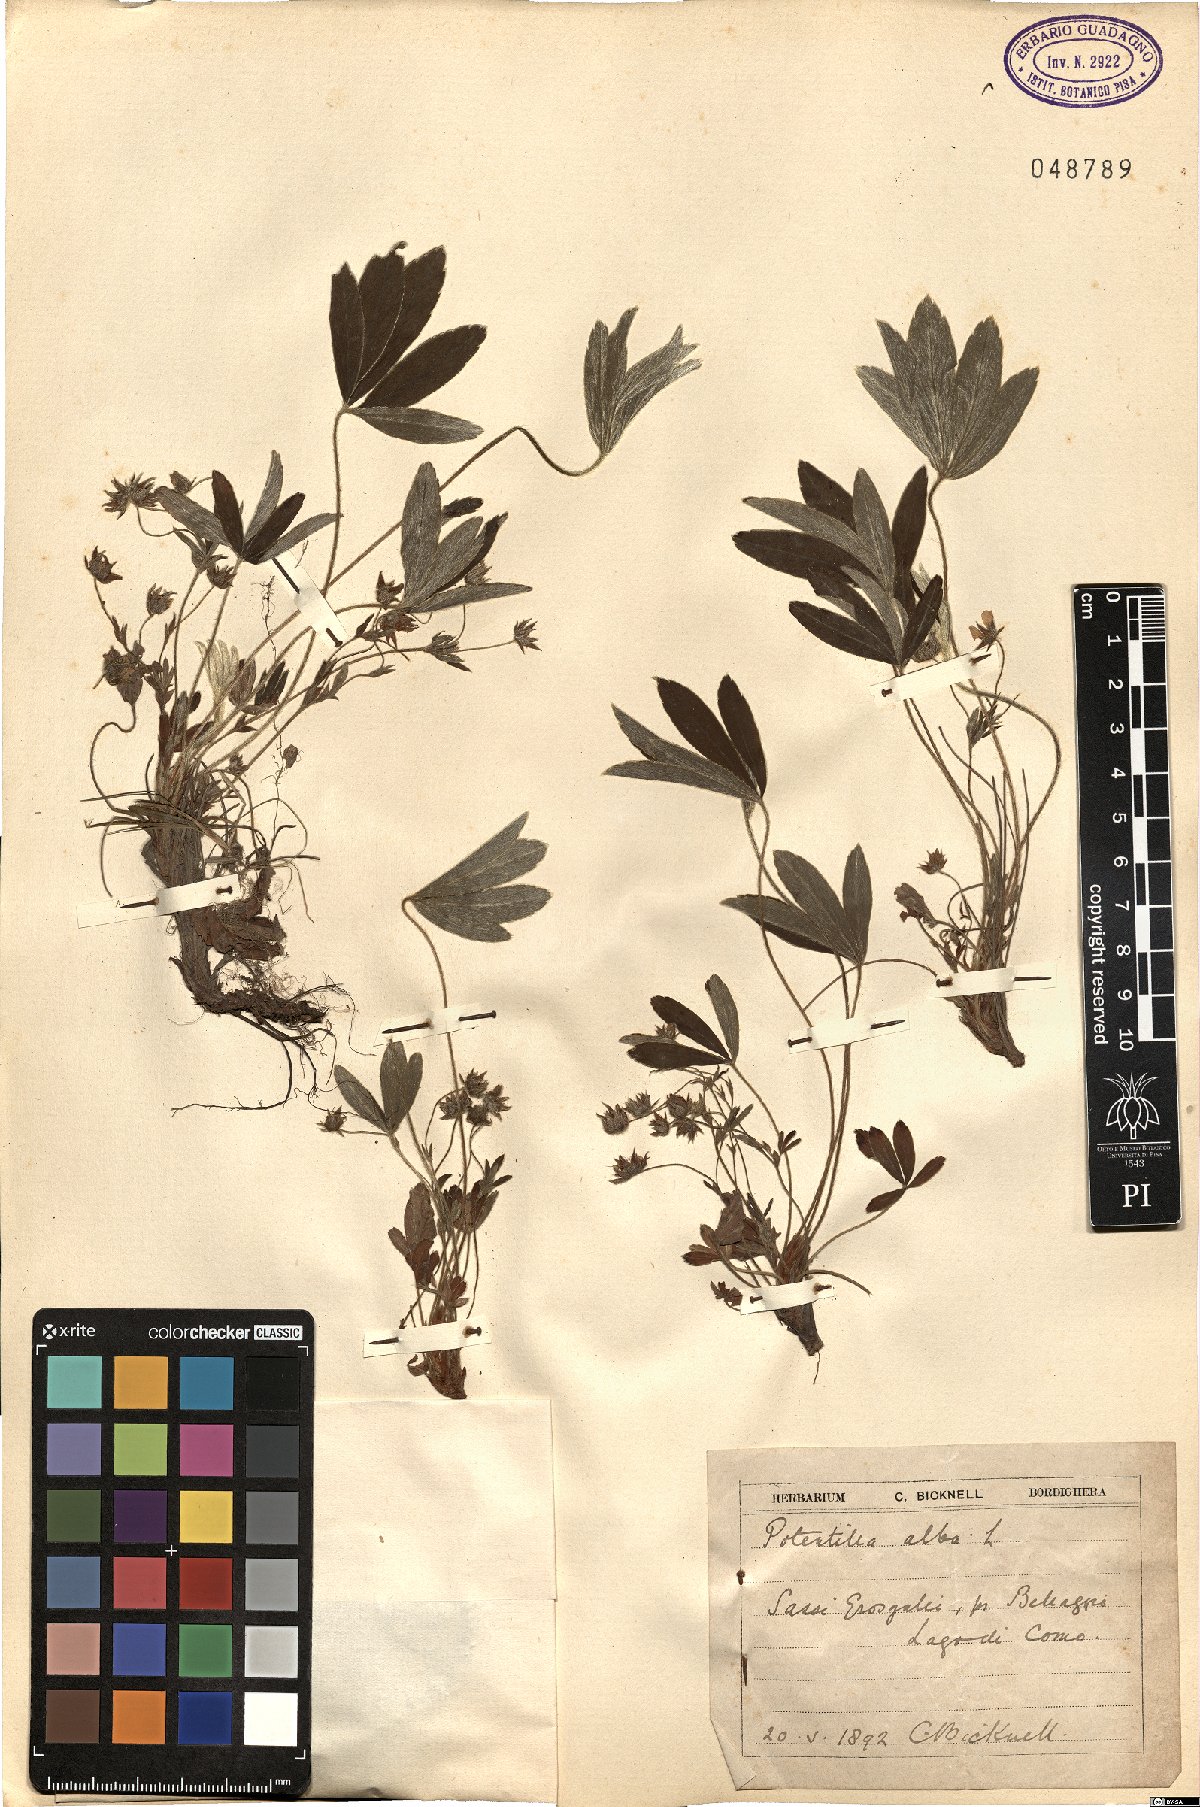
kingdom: Plantae
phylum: Tracheophyta
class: Magnoliopsida
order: Rosales
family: Rosaceae
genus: Potentilla
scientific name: Potentilla alba
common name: White cinquefoil
